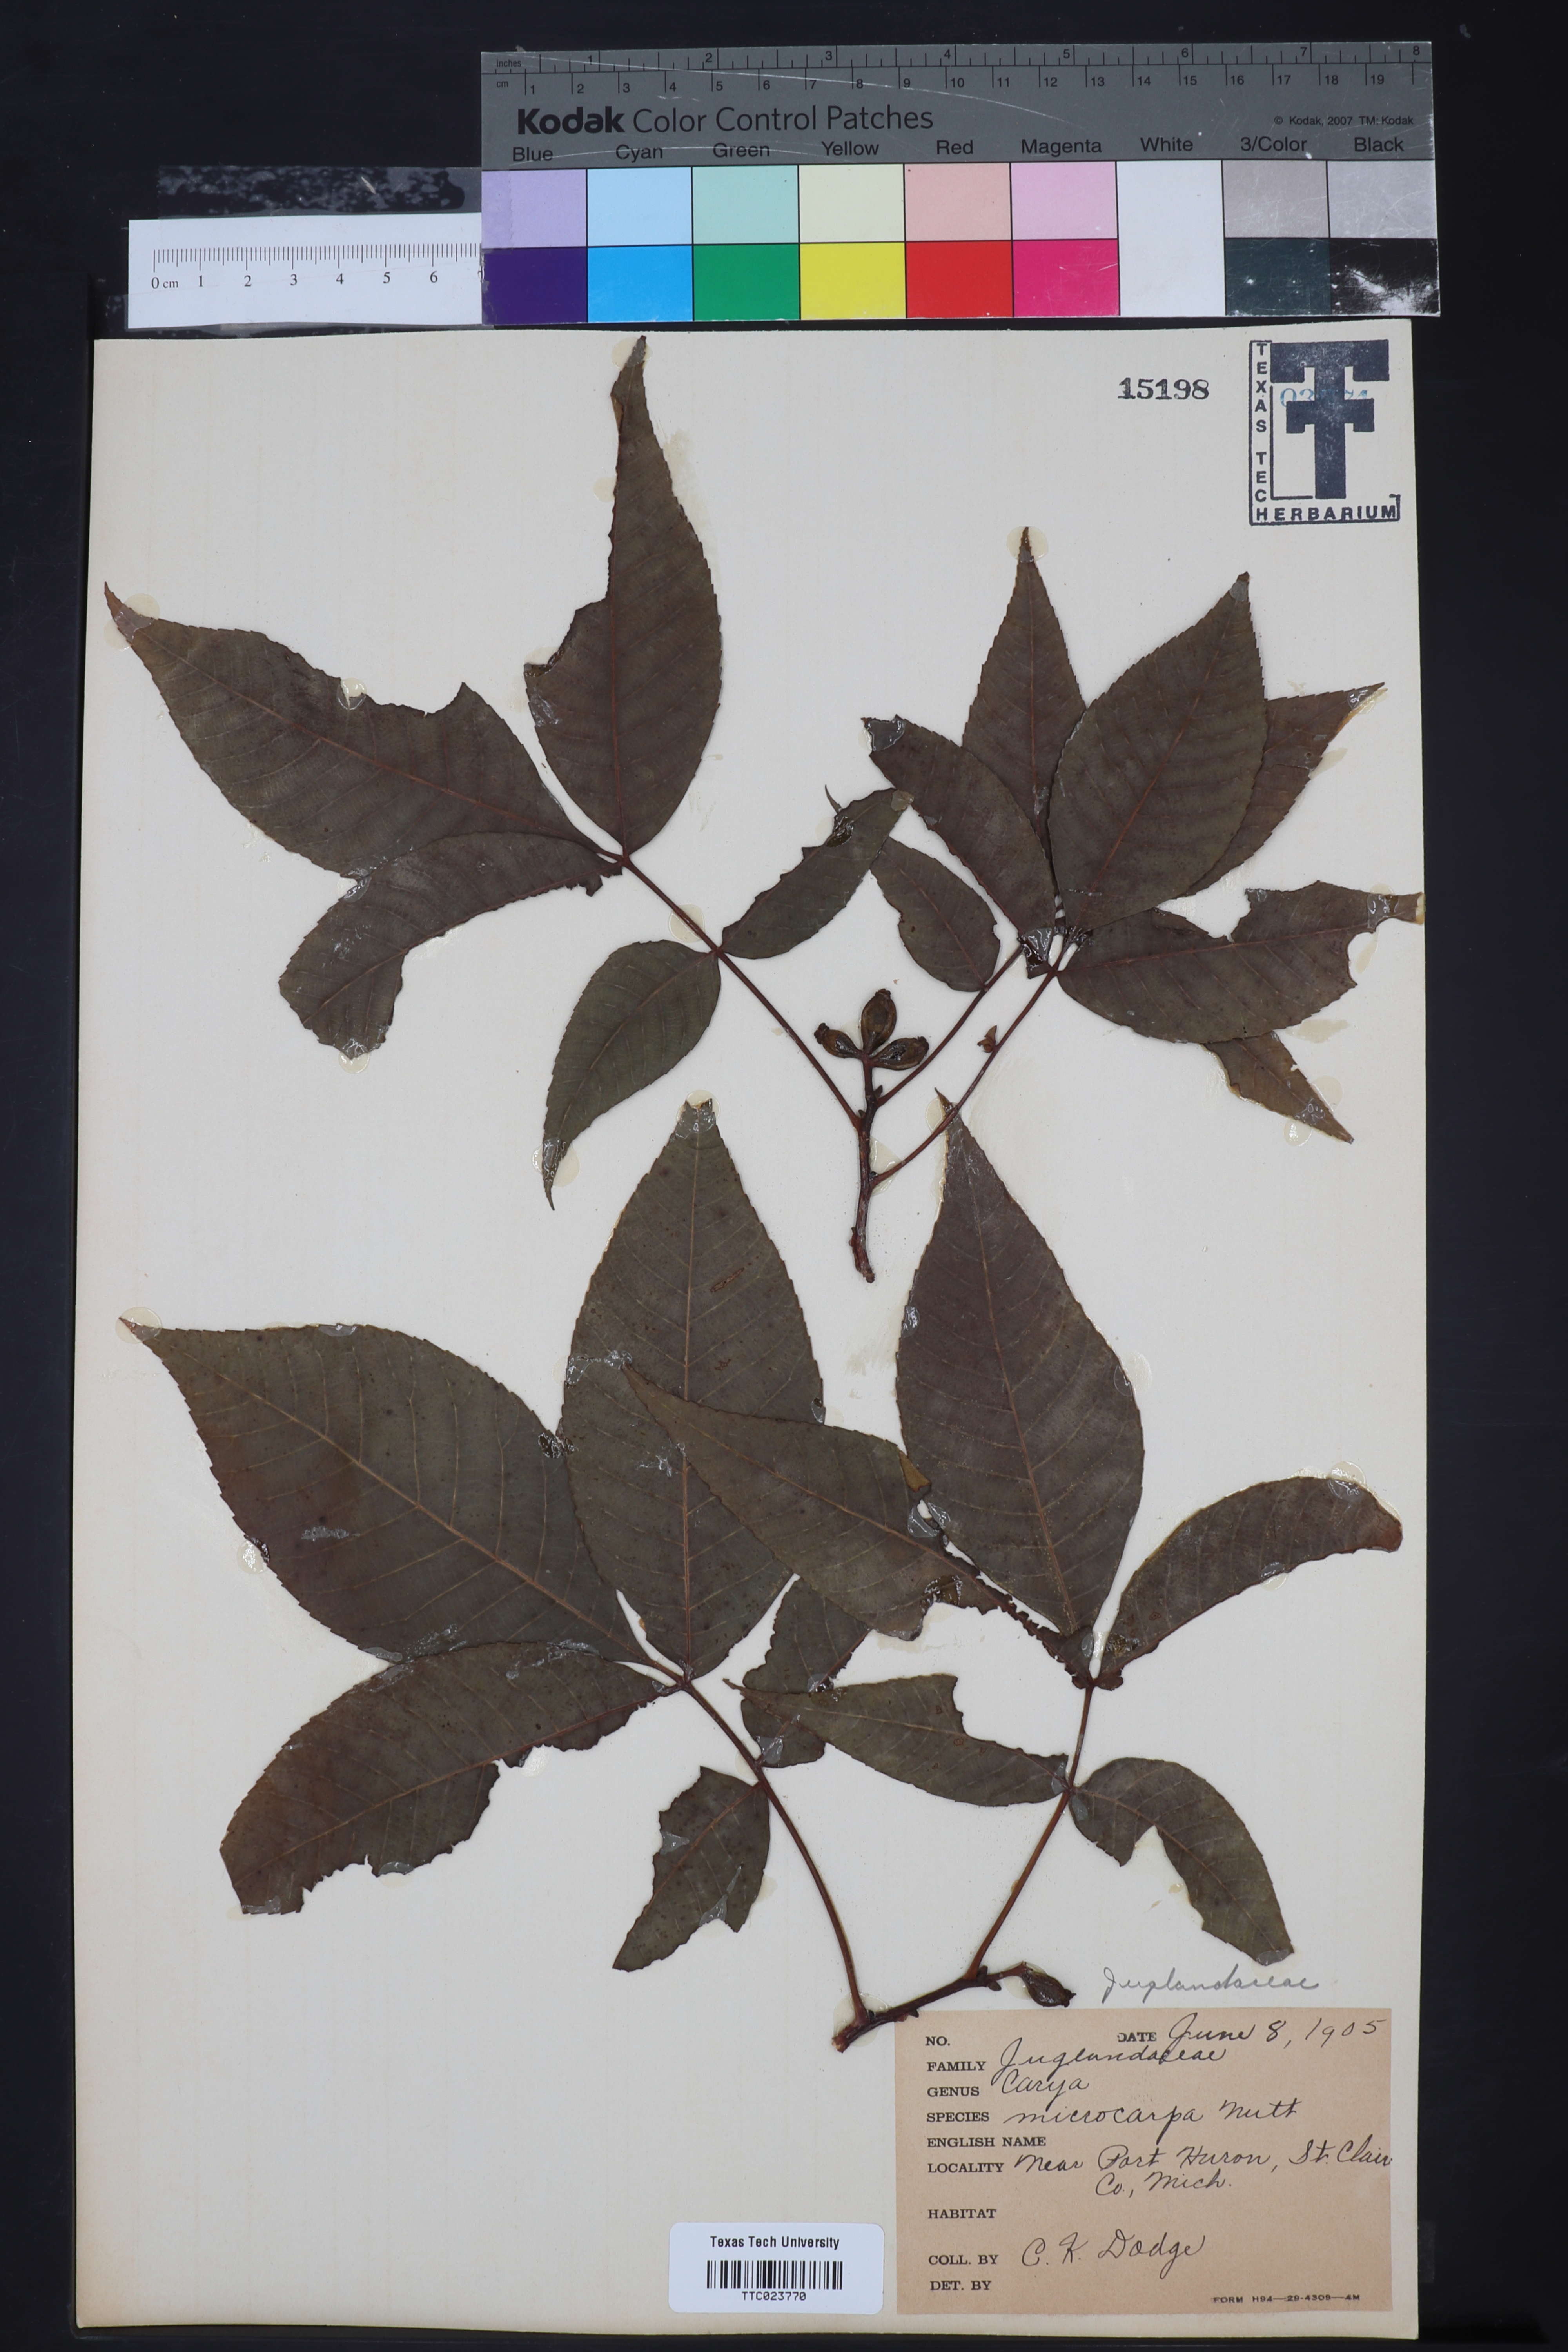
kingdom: Plantae
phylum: Tracheophyta
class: Magnoliopsida
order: Fagales
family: Juglandaceae
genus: Carya
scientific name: Carya glabra
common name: Pignut hickory
